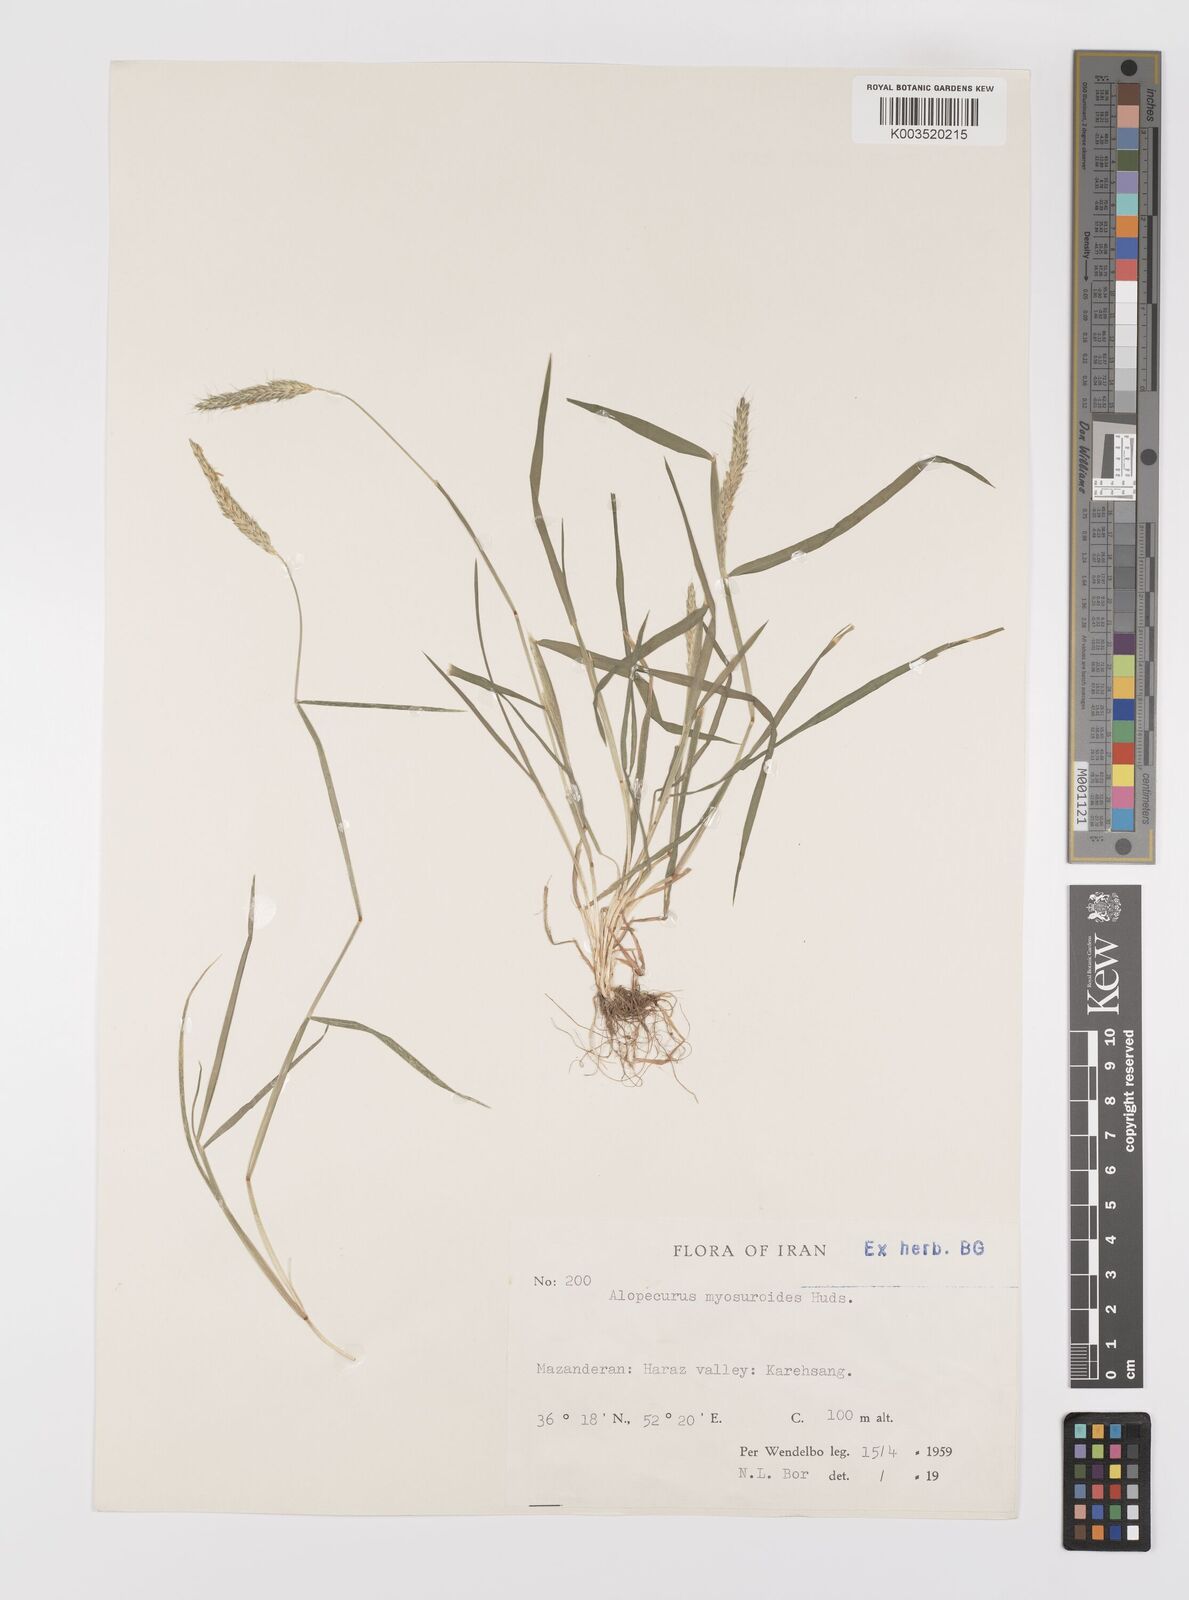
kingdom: Plantae
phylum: Tracheophyta
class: Liliopsida
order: Poales
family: Poaceae
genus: Alopecurus
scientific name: Alopecurus myosuroides
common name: Black-grass
